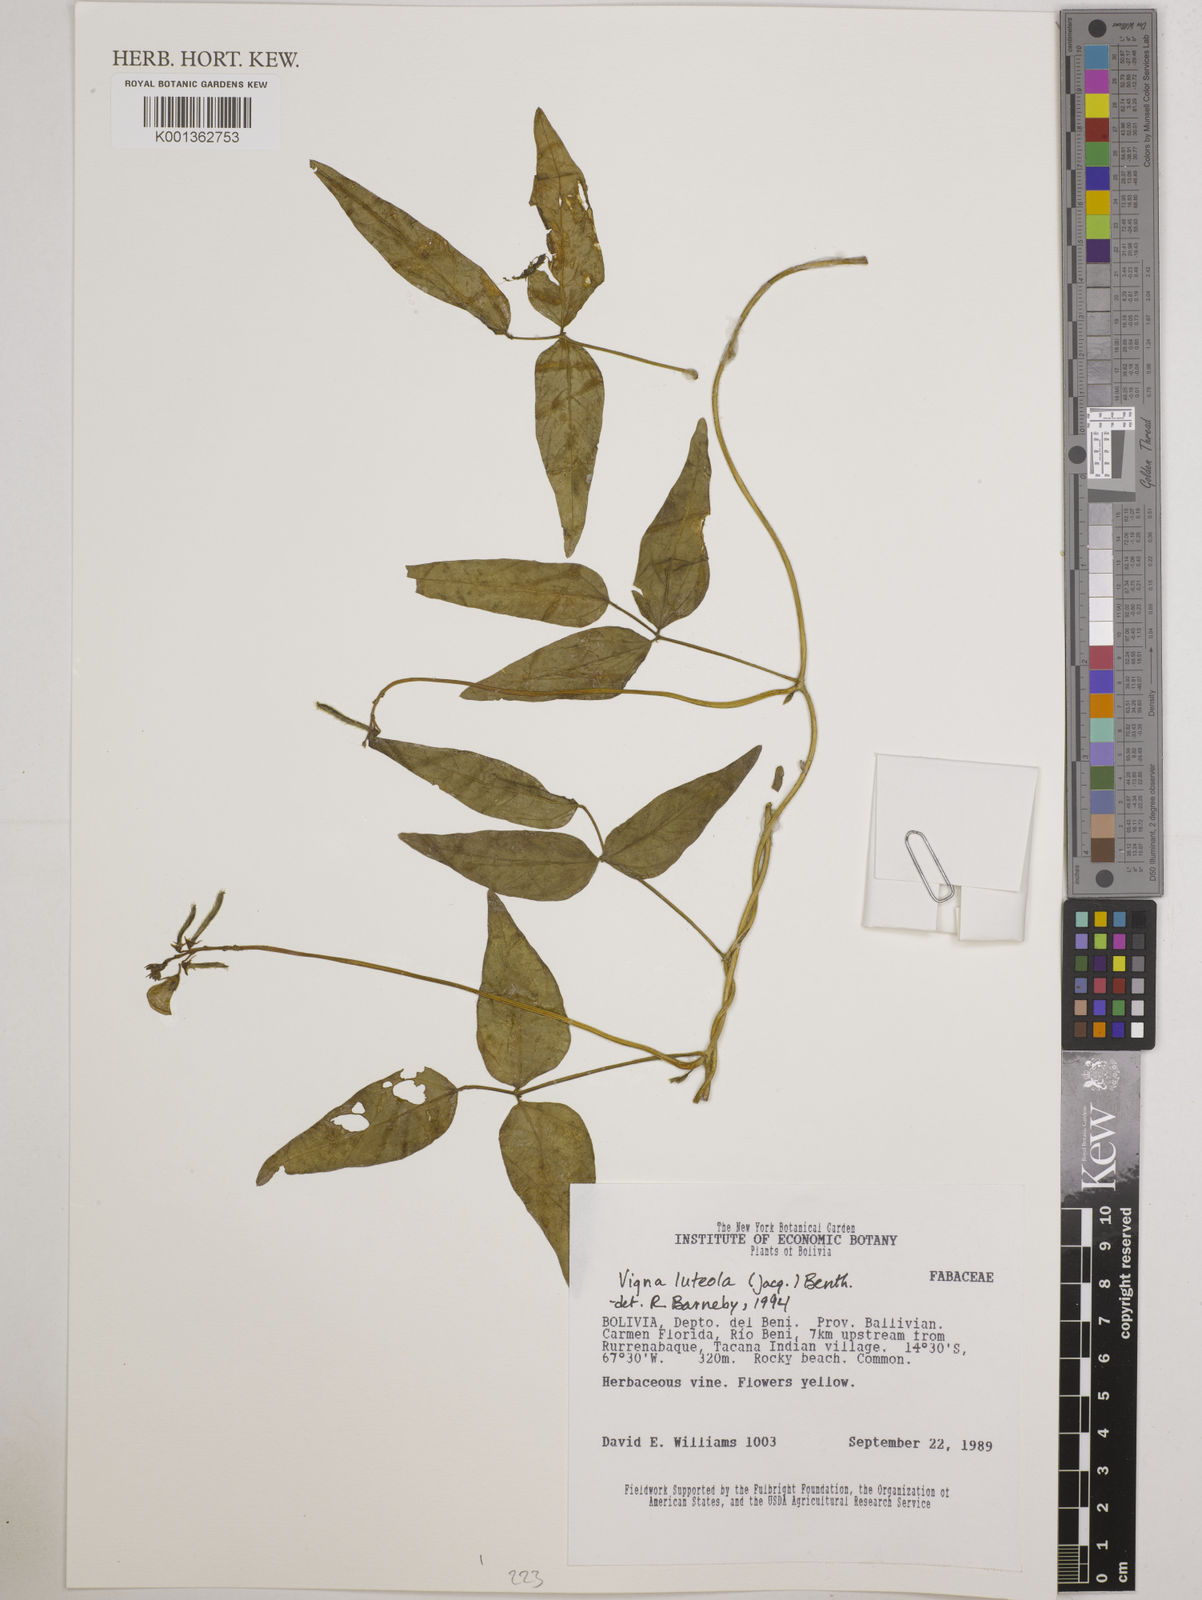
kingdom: Plantae
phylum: Tracheophyta
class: Magnoliopsida
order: Fabales
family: Fabaceae
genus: Vigna
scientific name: Vigna luteola
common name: Hairypod cowpea
